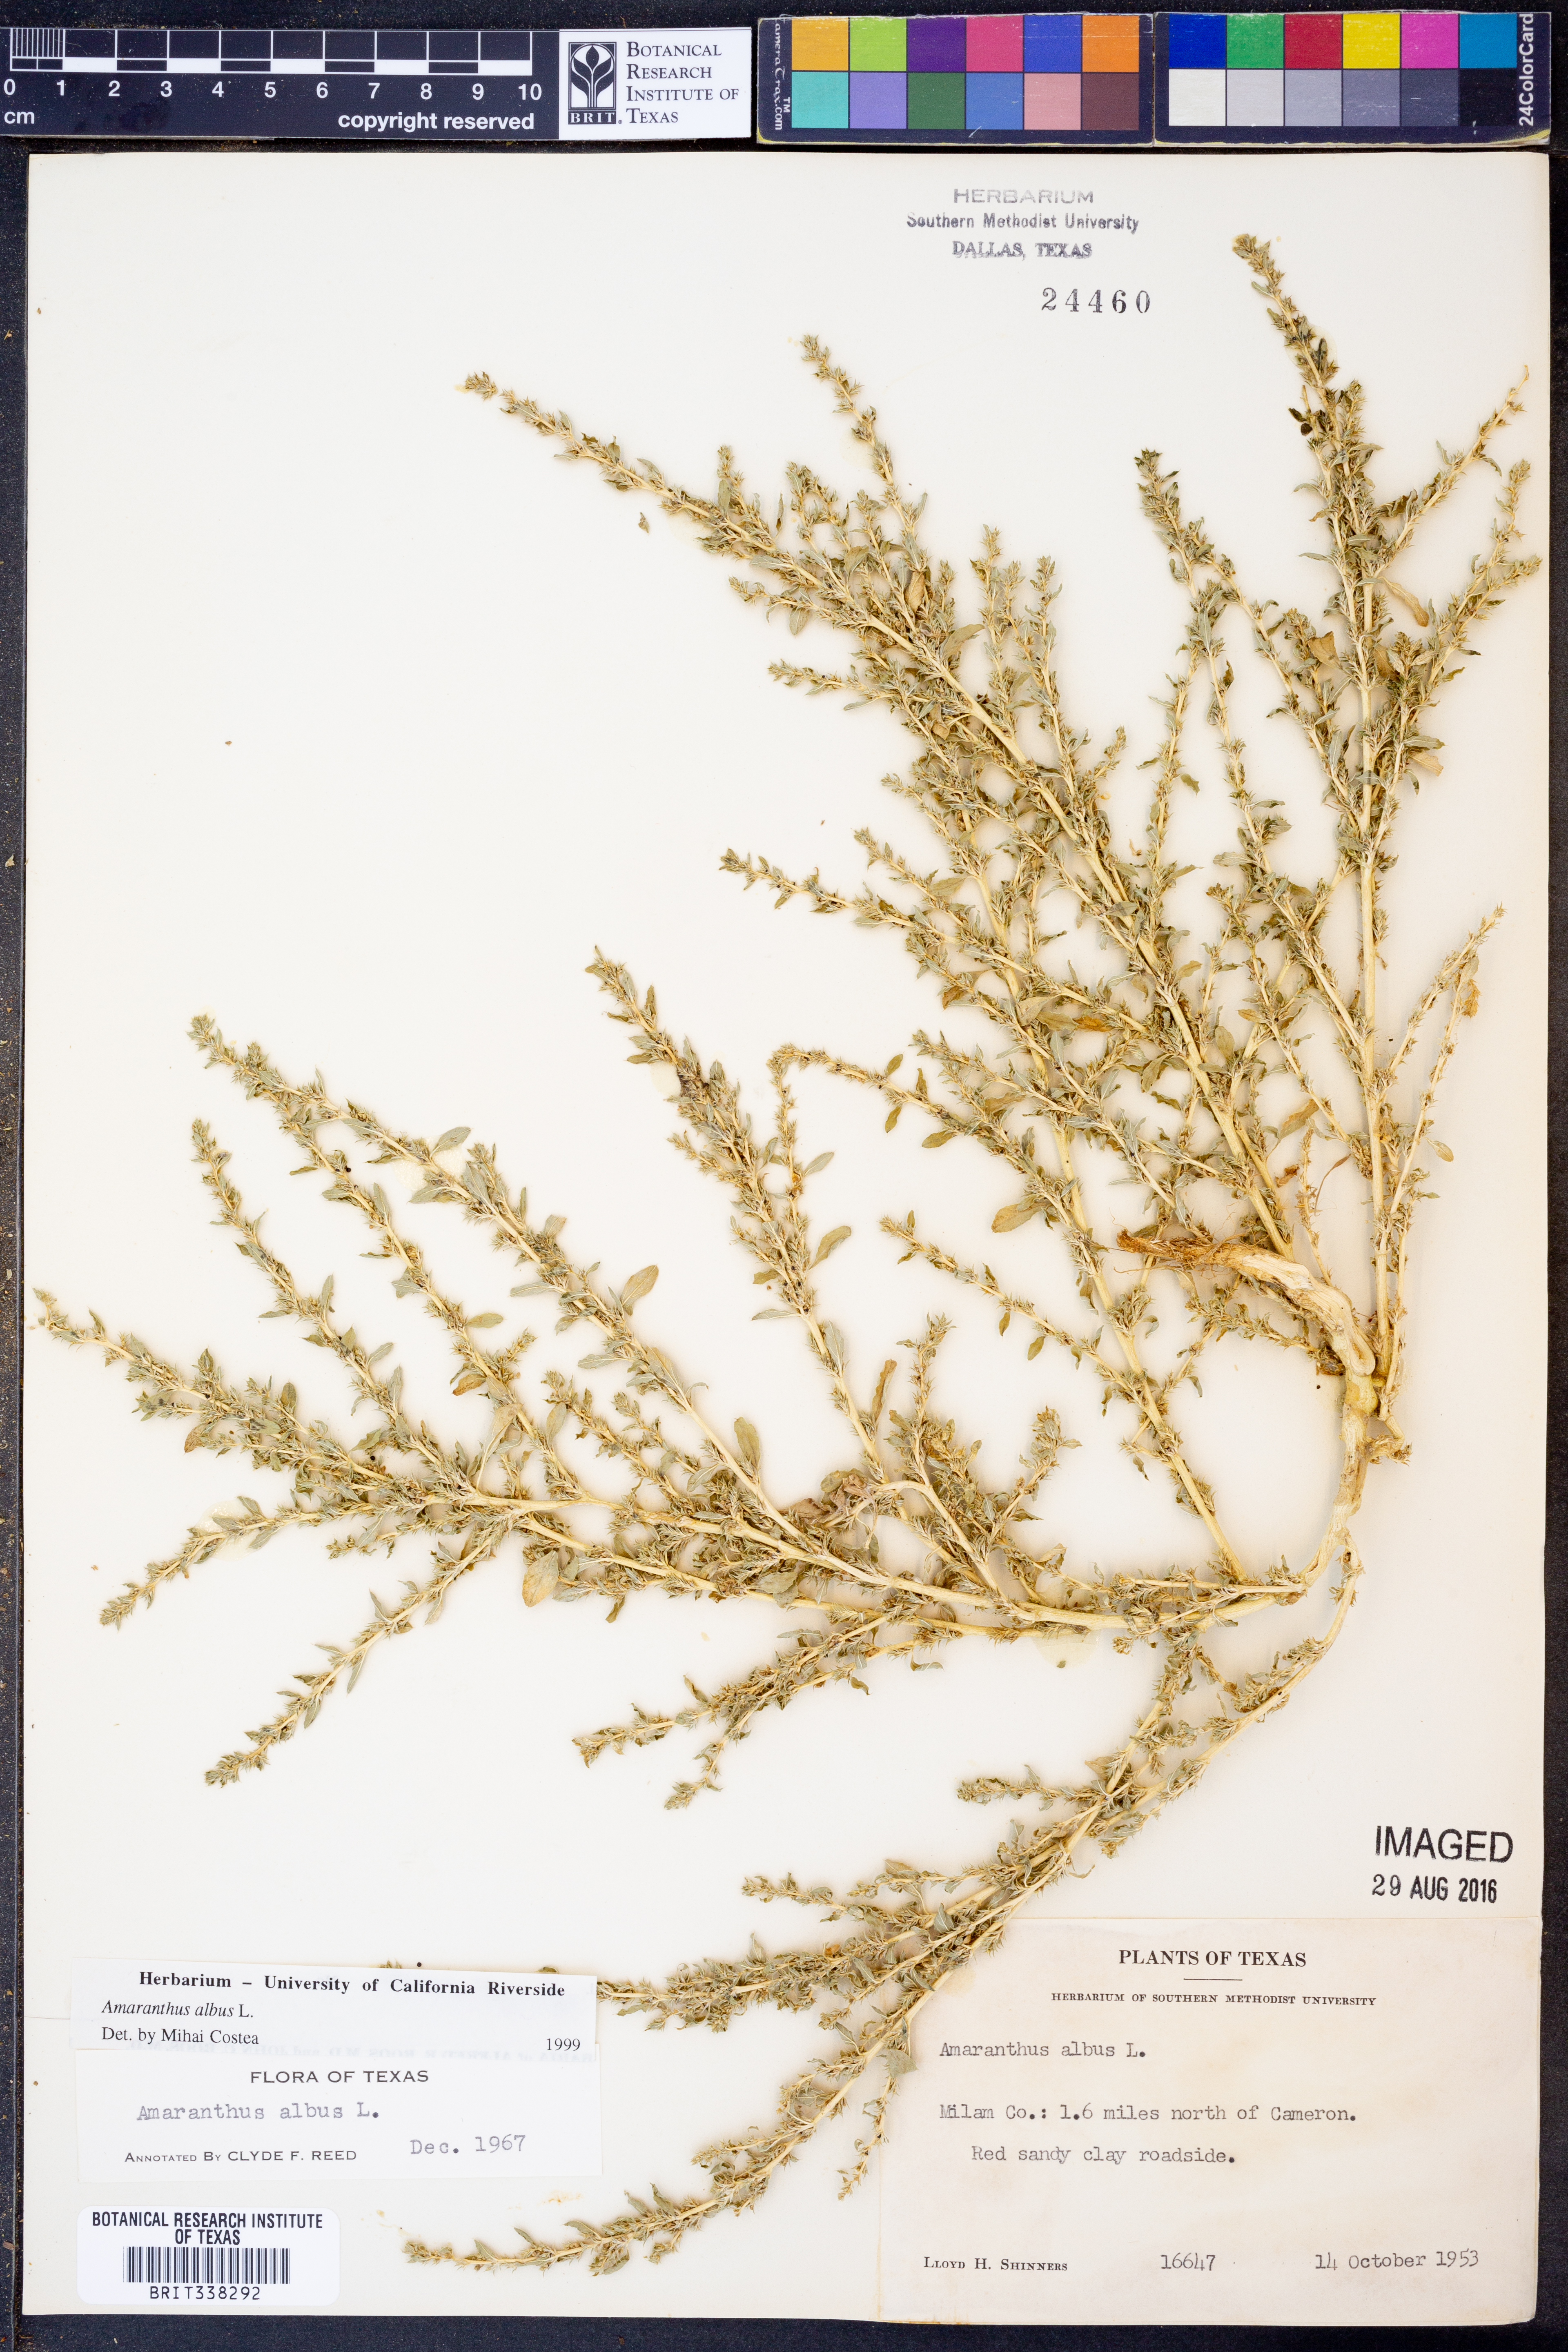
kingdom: Plantae
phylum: Tracheophyta
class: Magnoliopsida
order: Caryophyllales
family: Amaranthaceae
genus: Amaranthus
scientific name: Amaranthus albus
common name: White pigweed
